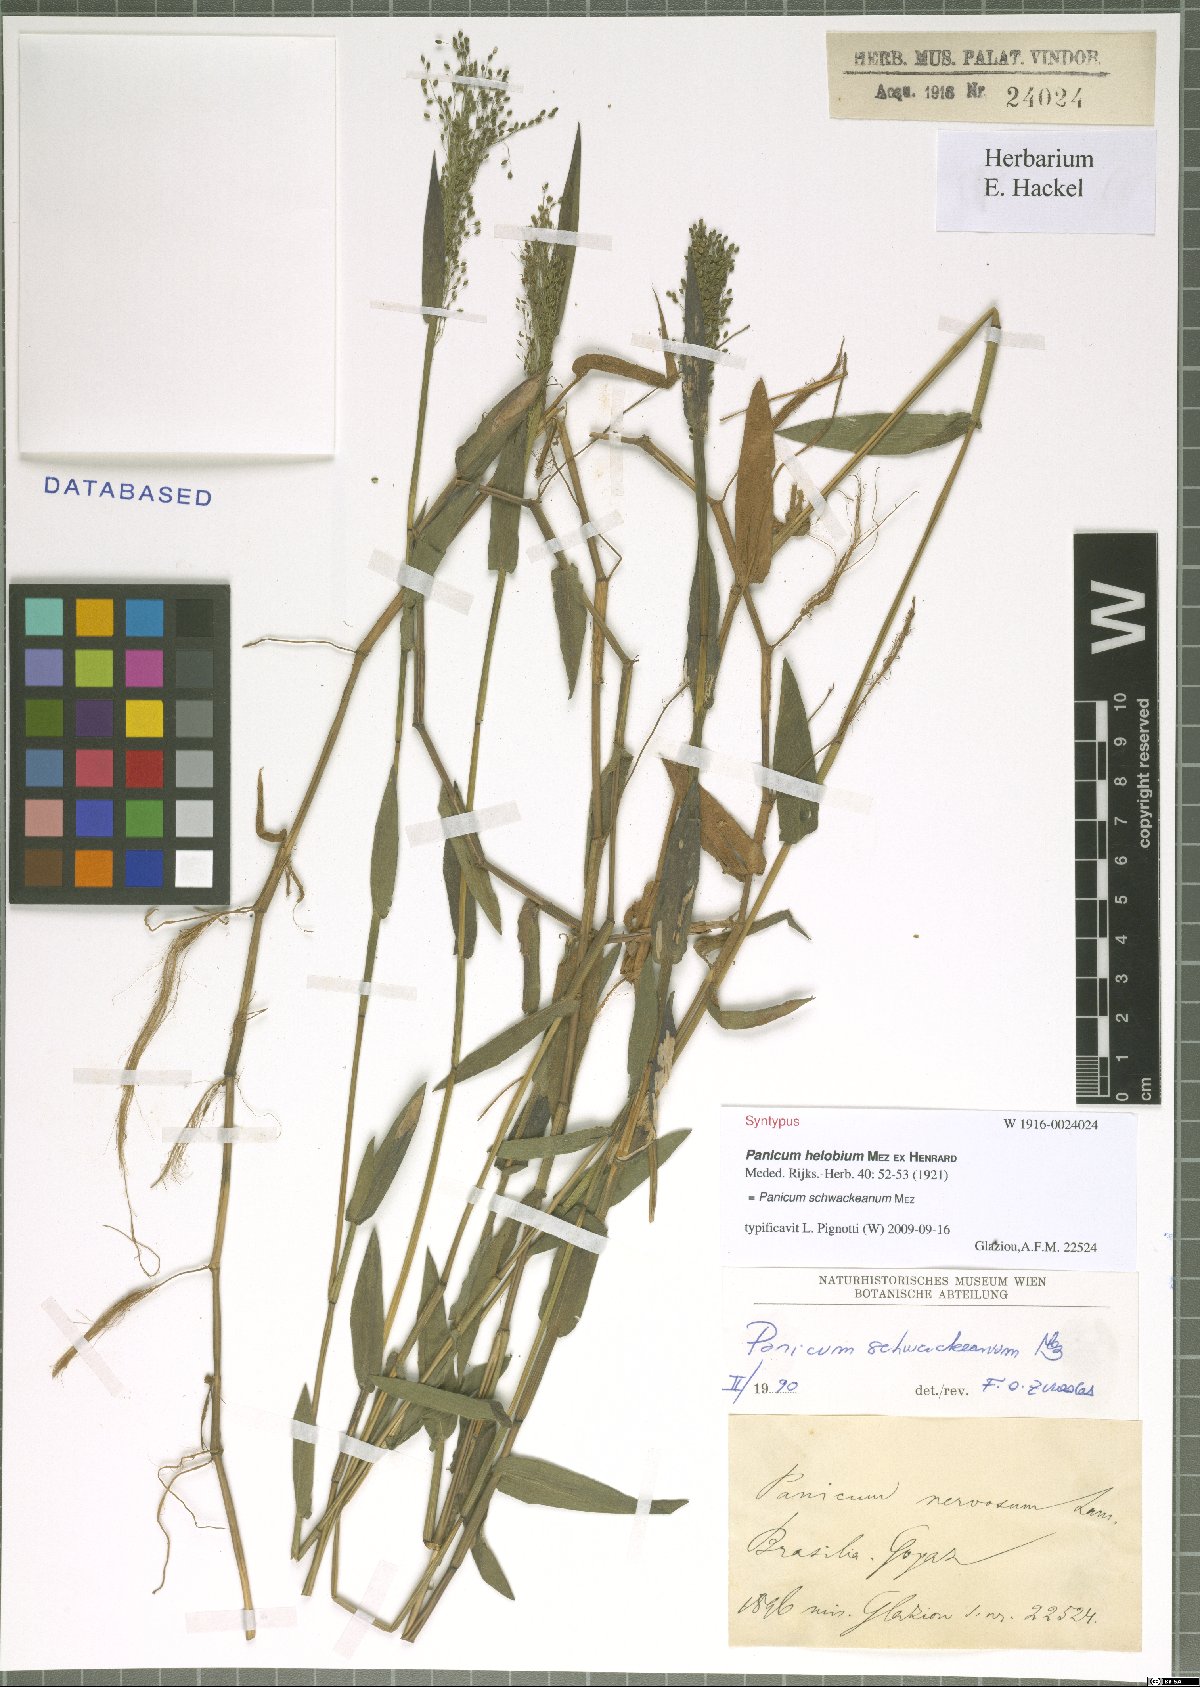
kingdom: Plantae
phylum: Tracheophyta
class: Liliopsida
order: Poales
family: Poaceae
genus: Trichanthecium
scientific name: Trichanthecium schwackeanum
